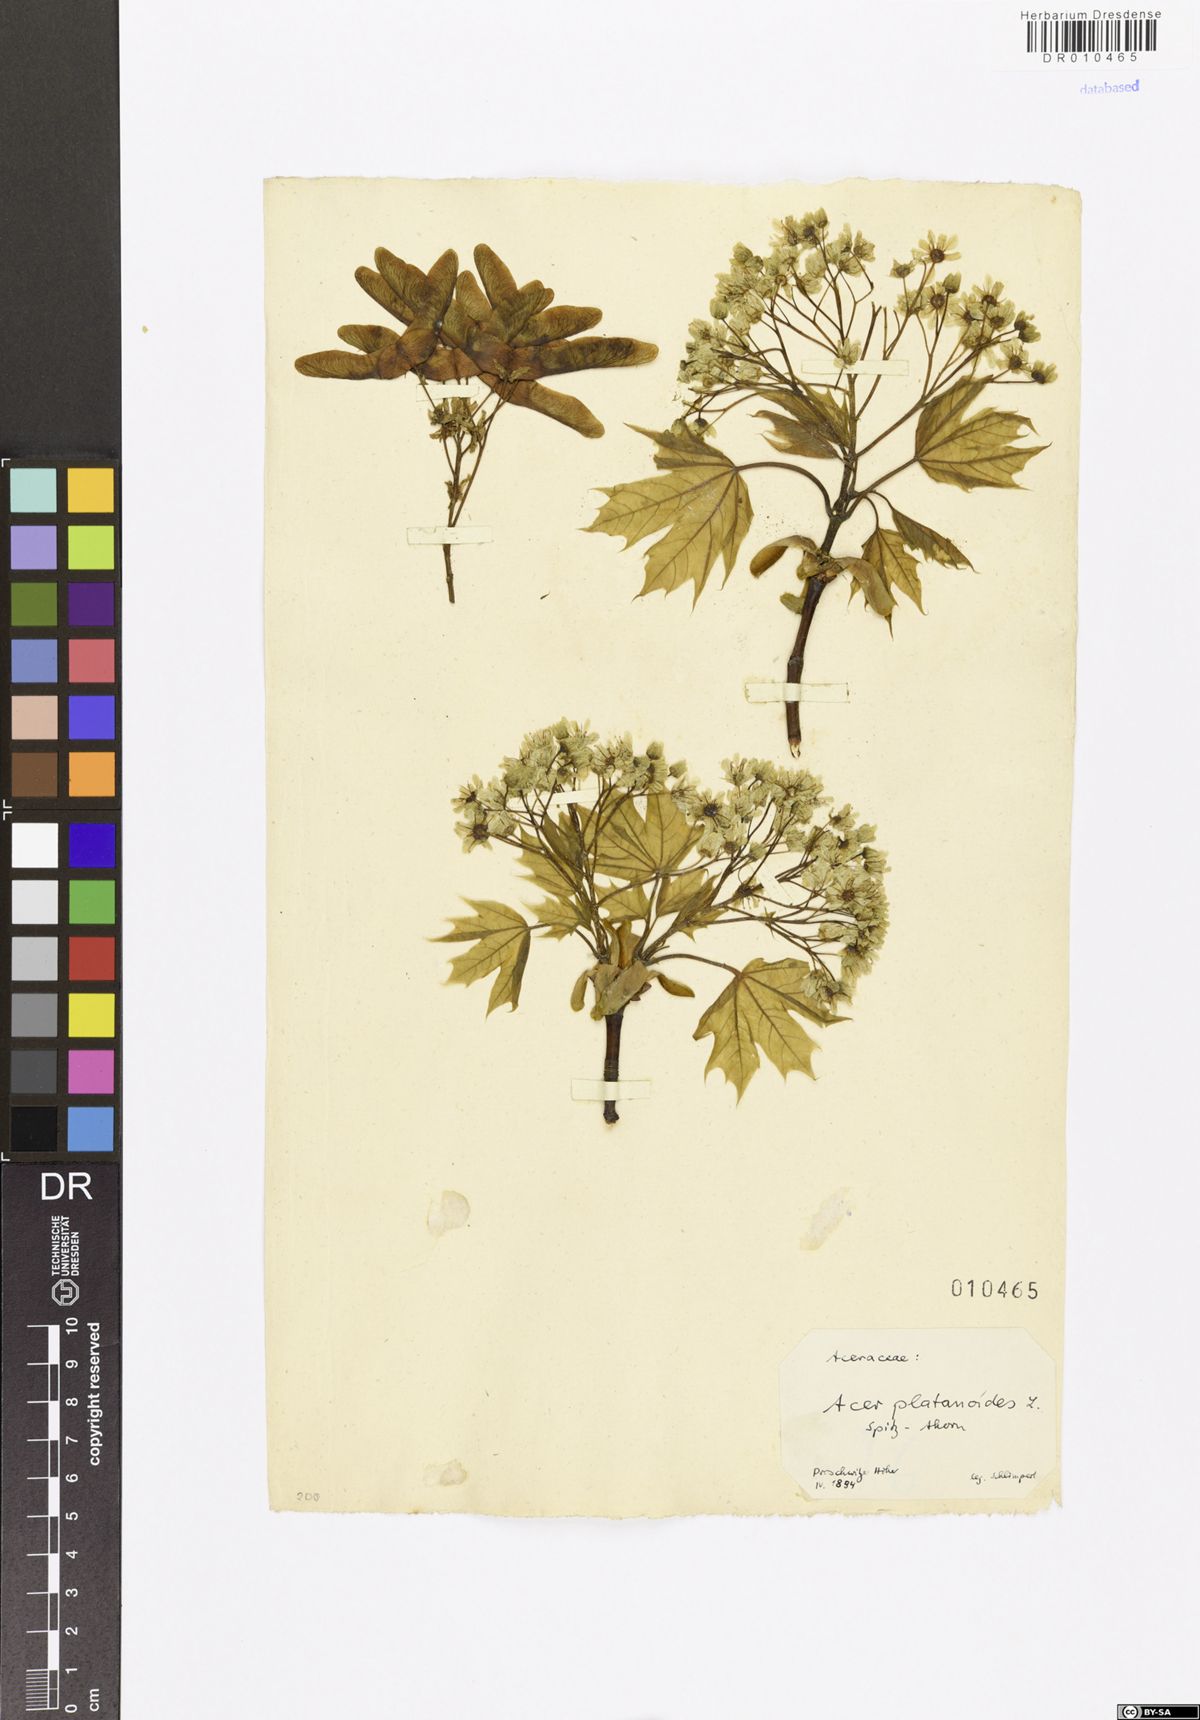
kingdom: Plantae
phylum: Tracheophyta
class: Magnoliopsida
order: Sapindales
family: Sapindaceae
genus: Acer
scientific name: Acer platanoides
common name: Norway maple
